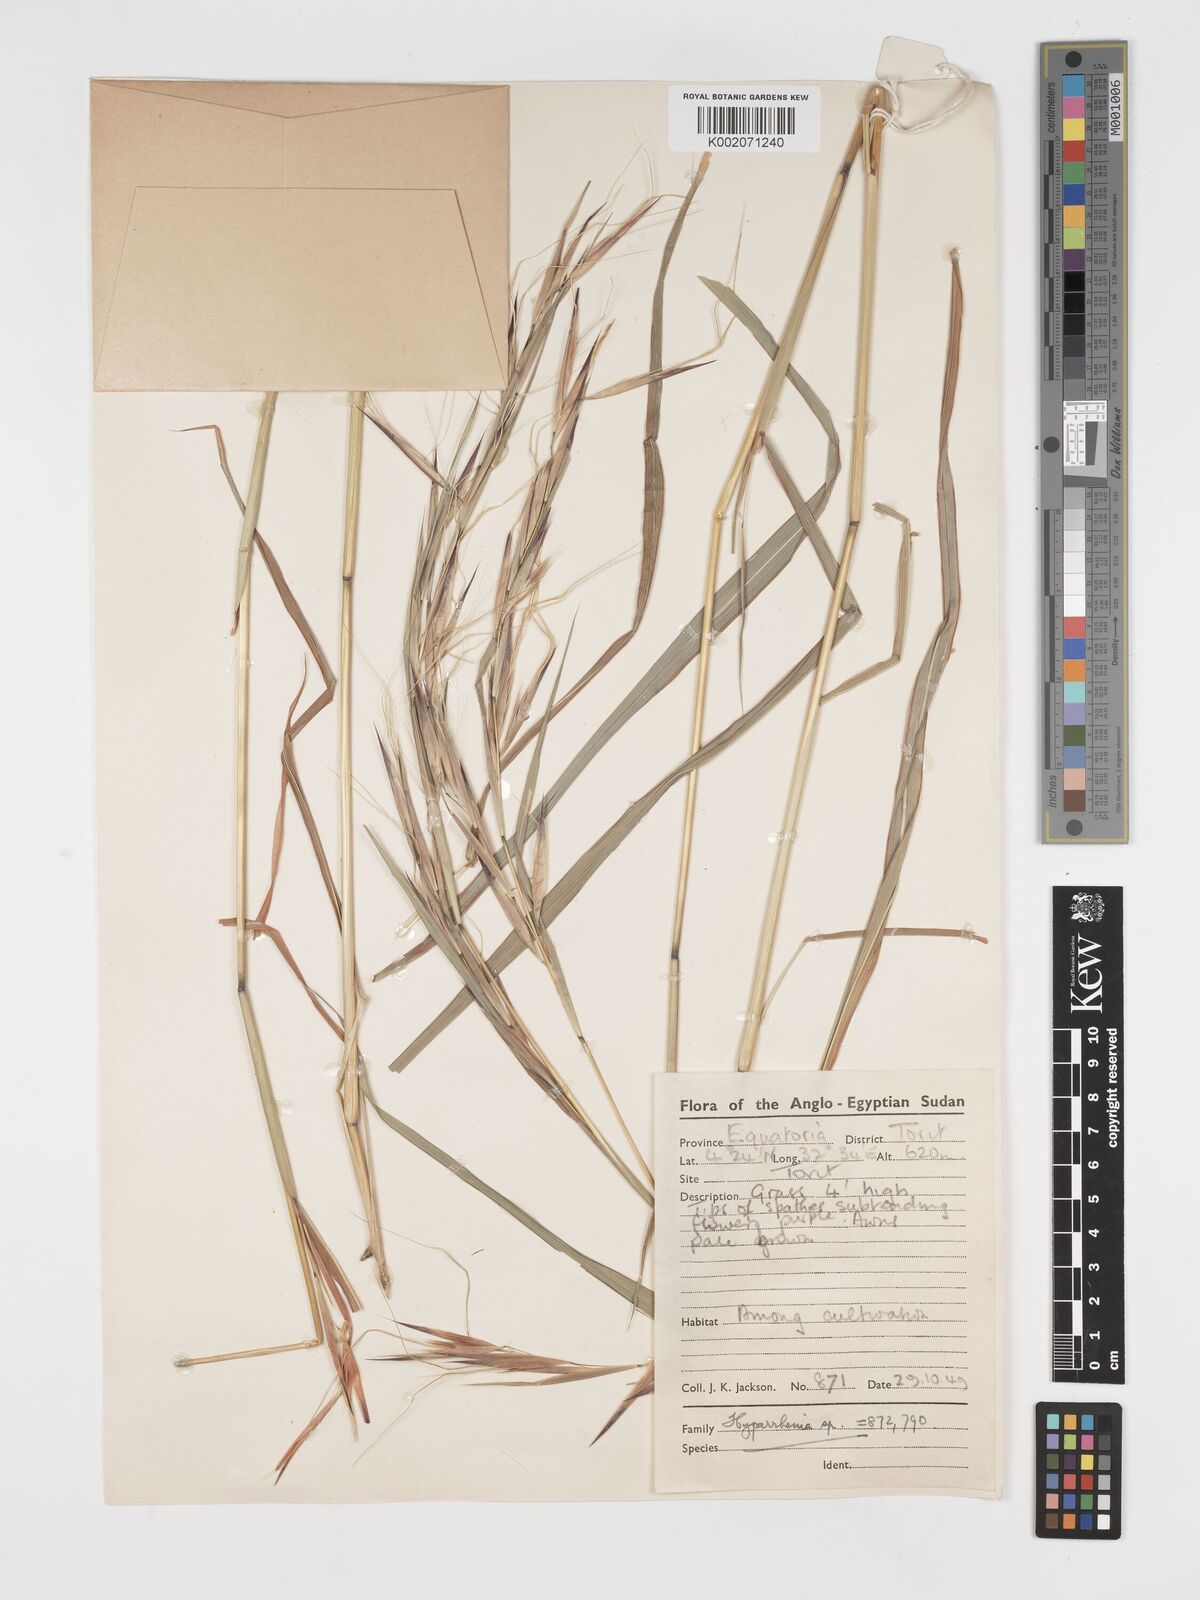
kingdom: Plantae
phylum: Tracheophyta
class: Liliopsida
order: Poales
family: Poaceae
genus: Hyparrhenia
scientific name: Hyparrhenia madaropoda
